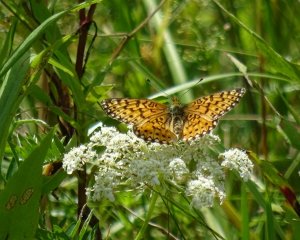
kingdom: Animalia
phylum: Arthropoda
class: Insecta
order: Lepidoptera
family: Nymphalidae
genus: Boloria
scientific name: Boloria selene
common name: Silver-bordered Fritillary
